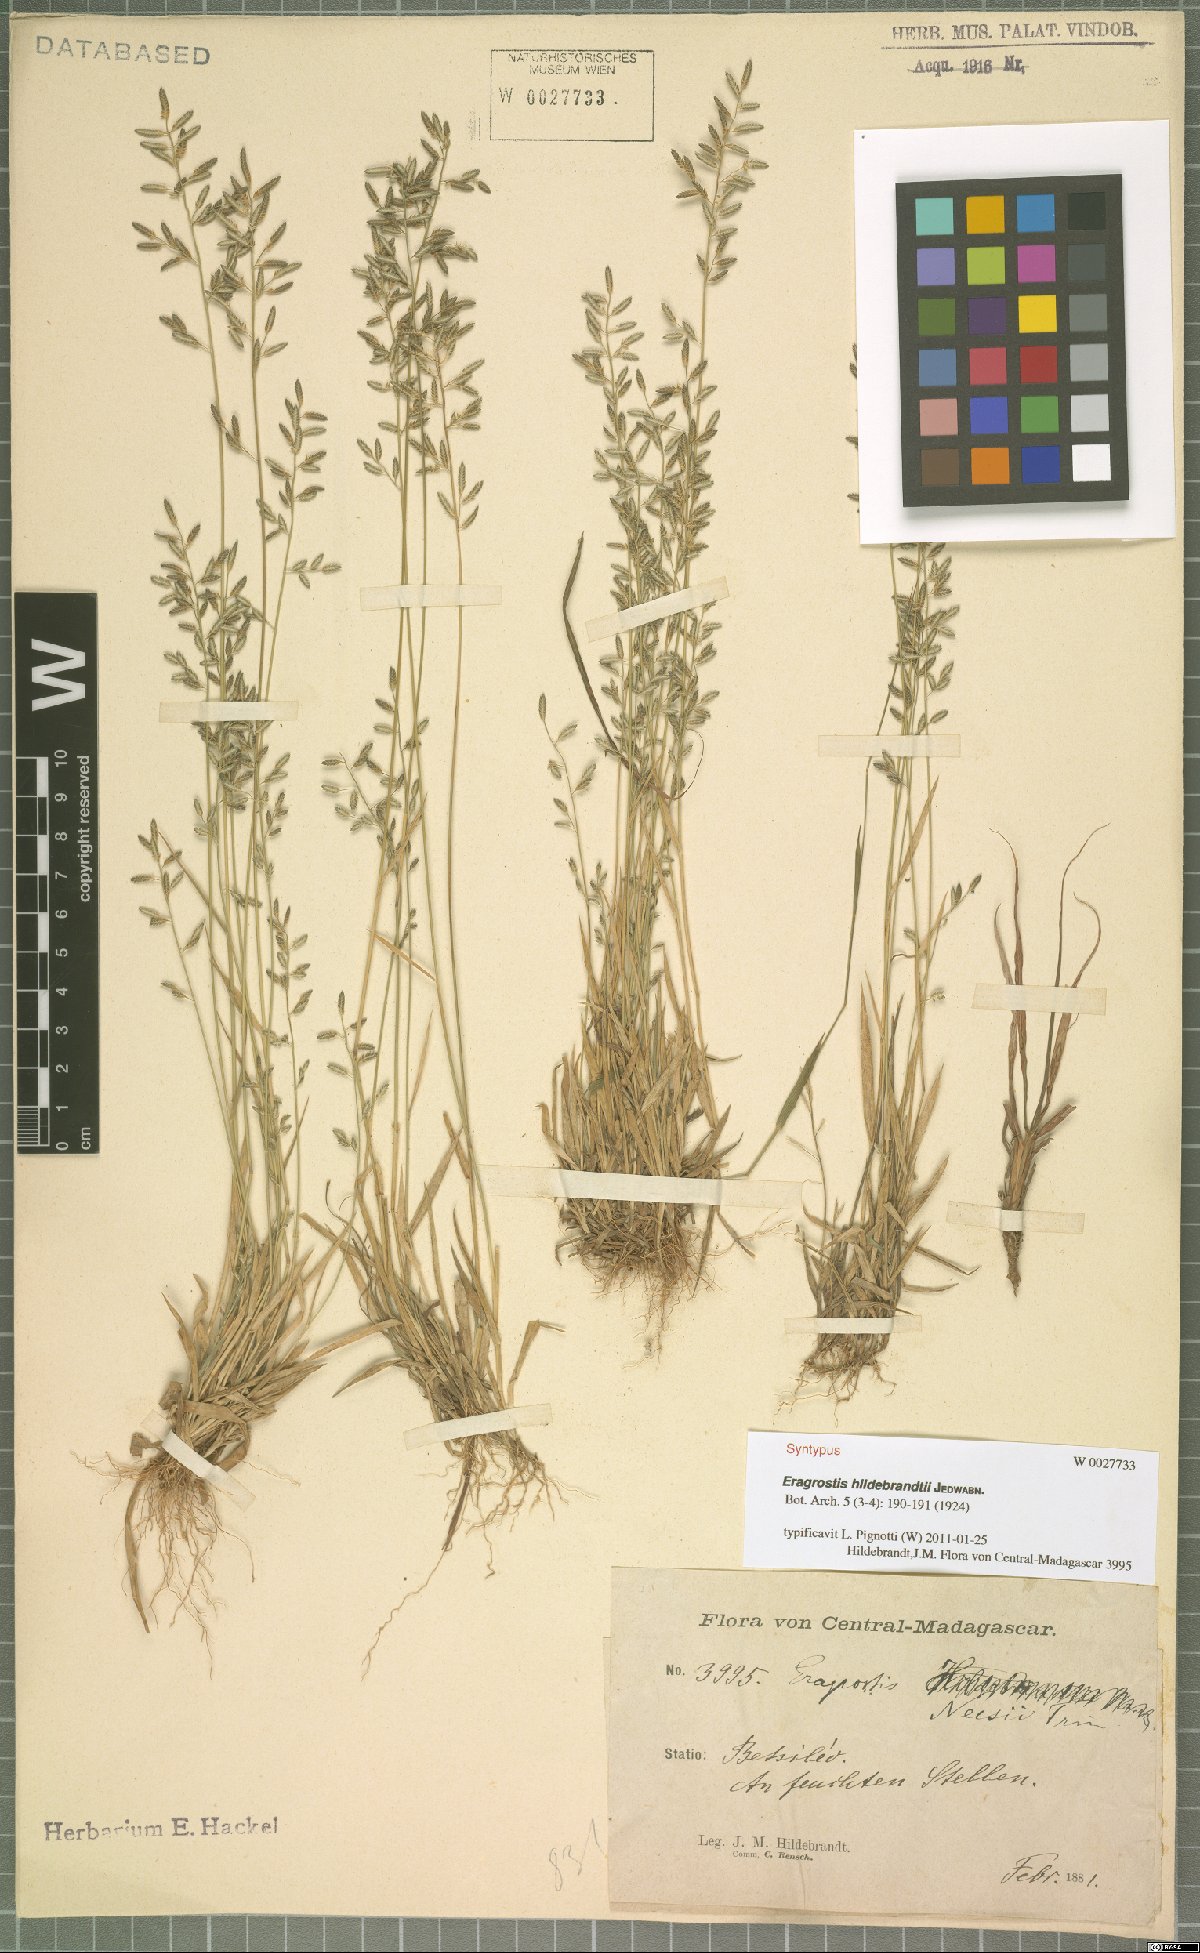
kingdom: Plantae
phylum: Tracheophyta
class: Liliopsida
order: Poales
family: Poaceae
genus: Eragrostis
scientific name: Eragrostis hildebrandtii
